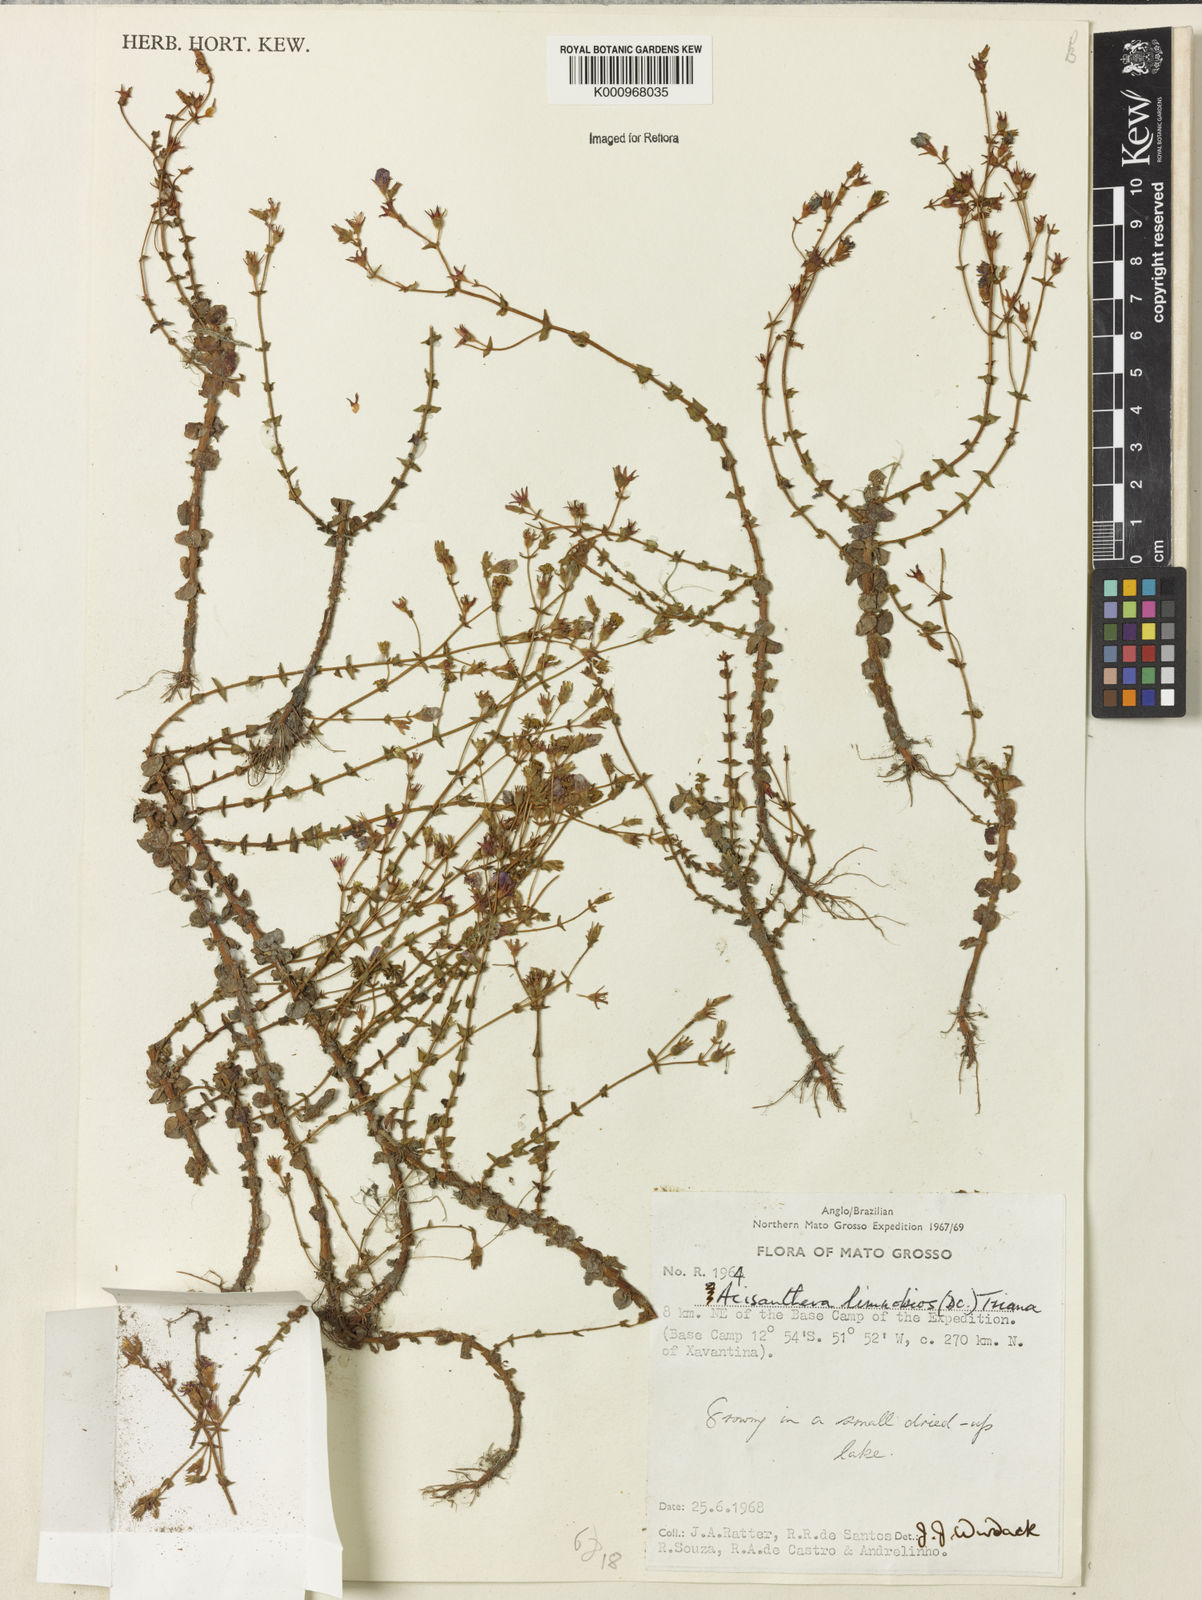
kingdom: Plantae
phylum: Tracheophyta
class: Magnoliopsida
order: Myrtales
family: Melastomataceae
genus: Acisanthera
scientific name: Acisanthera
